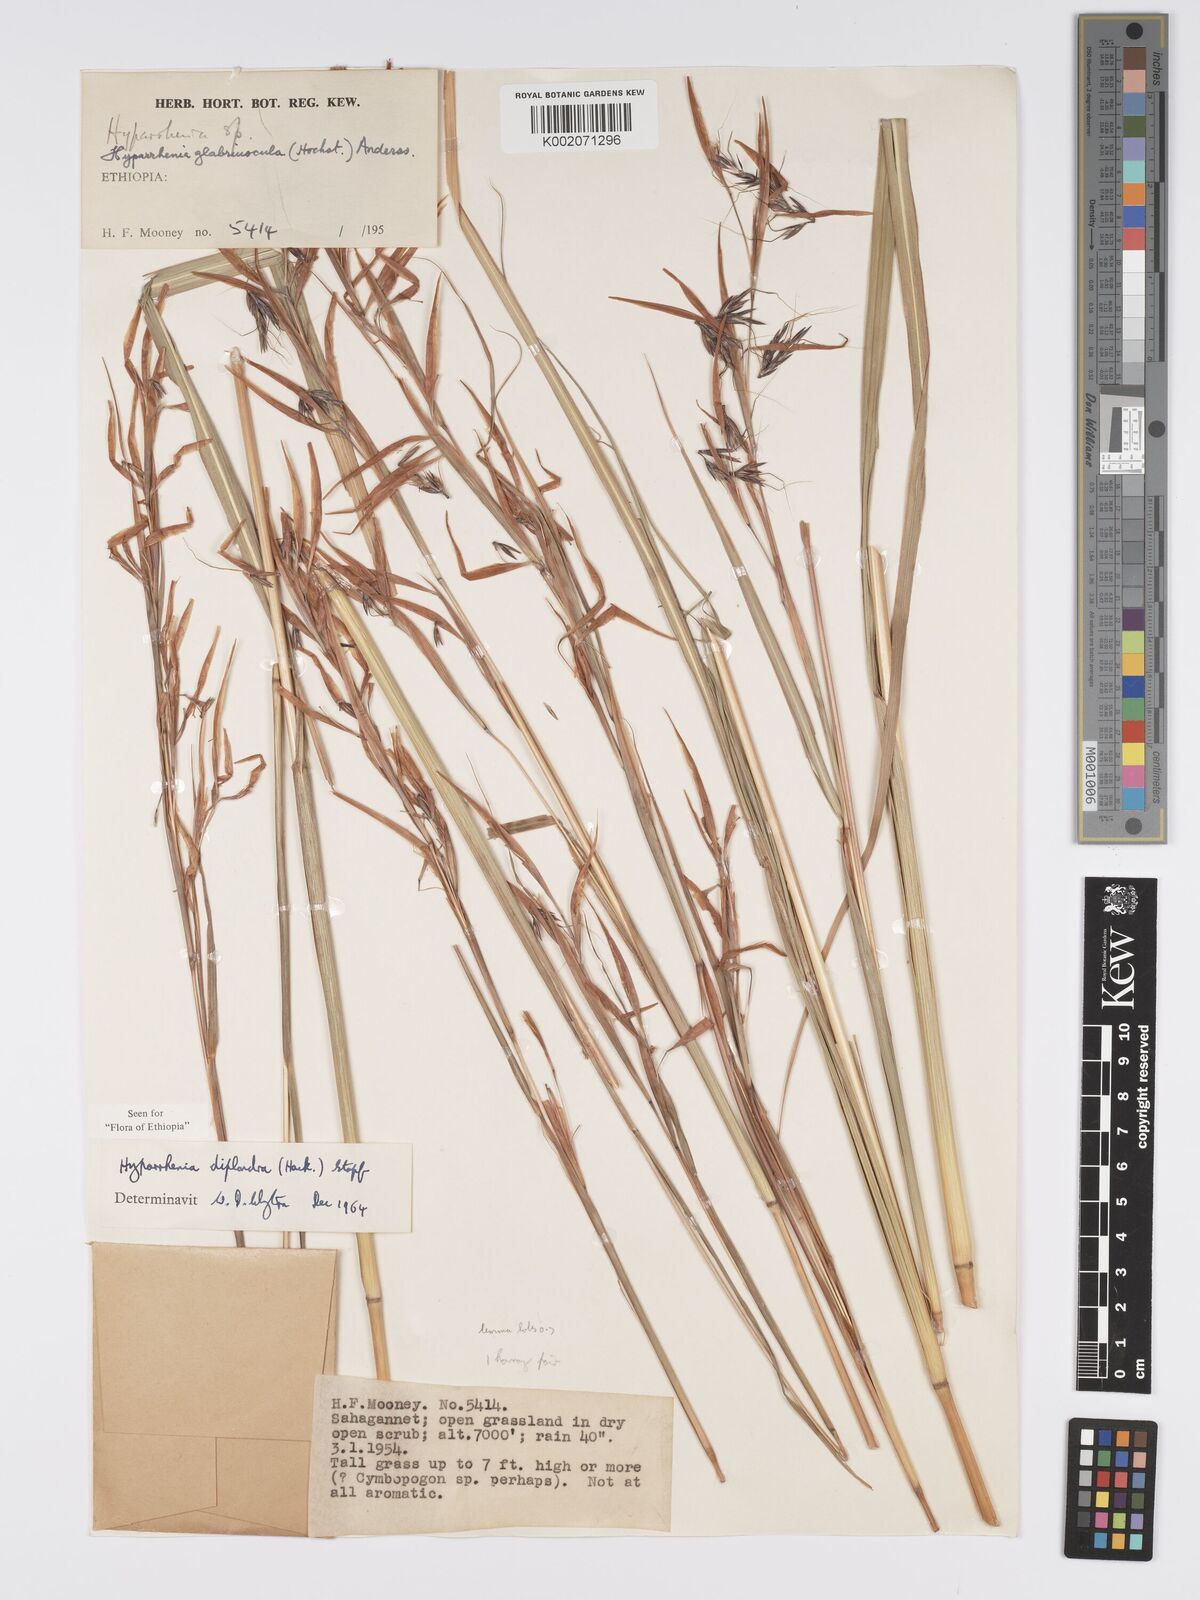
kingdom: Plantae
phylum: Tracheophyta
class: Liliopsida
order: Poales
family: Poaceae
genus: Hyparrhenia
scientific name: Hyparrhenia diplandra
